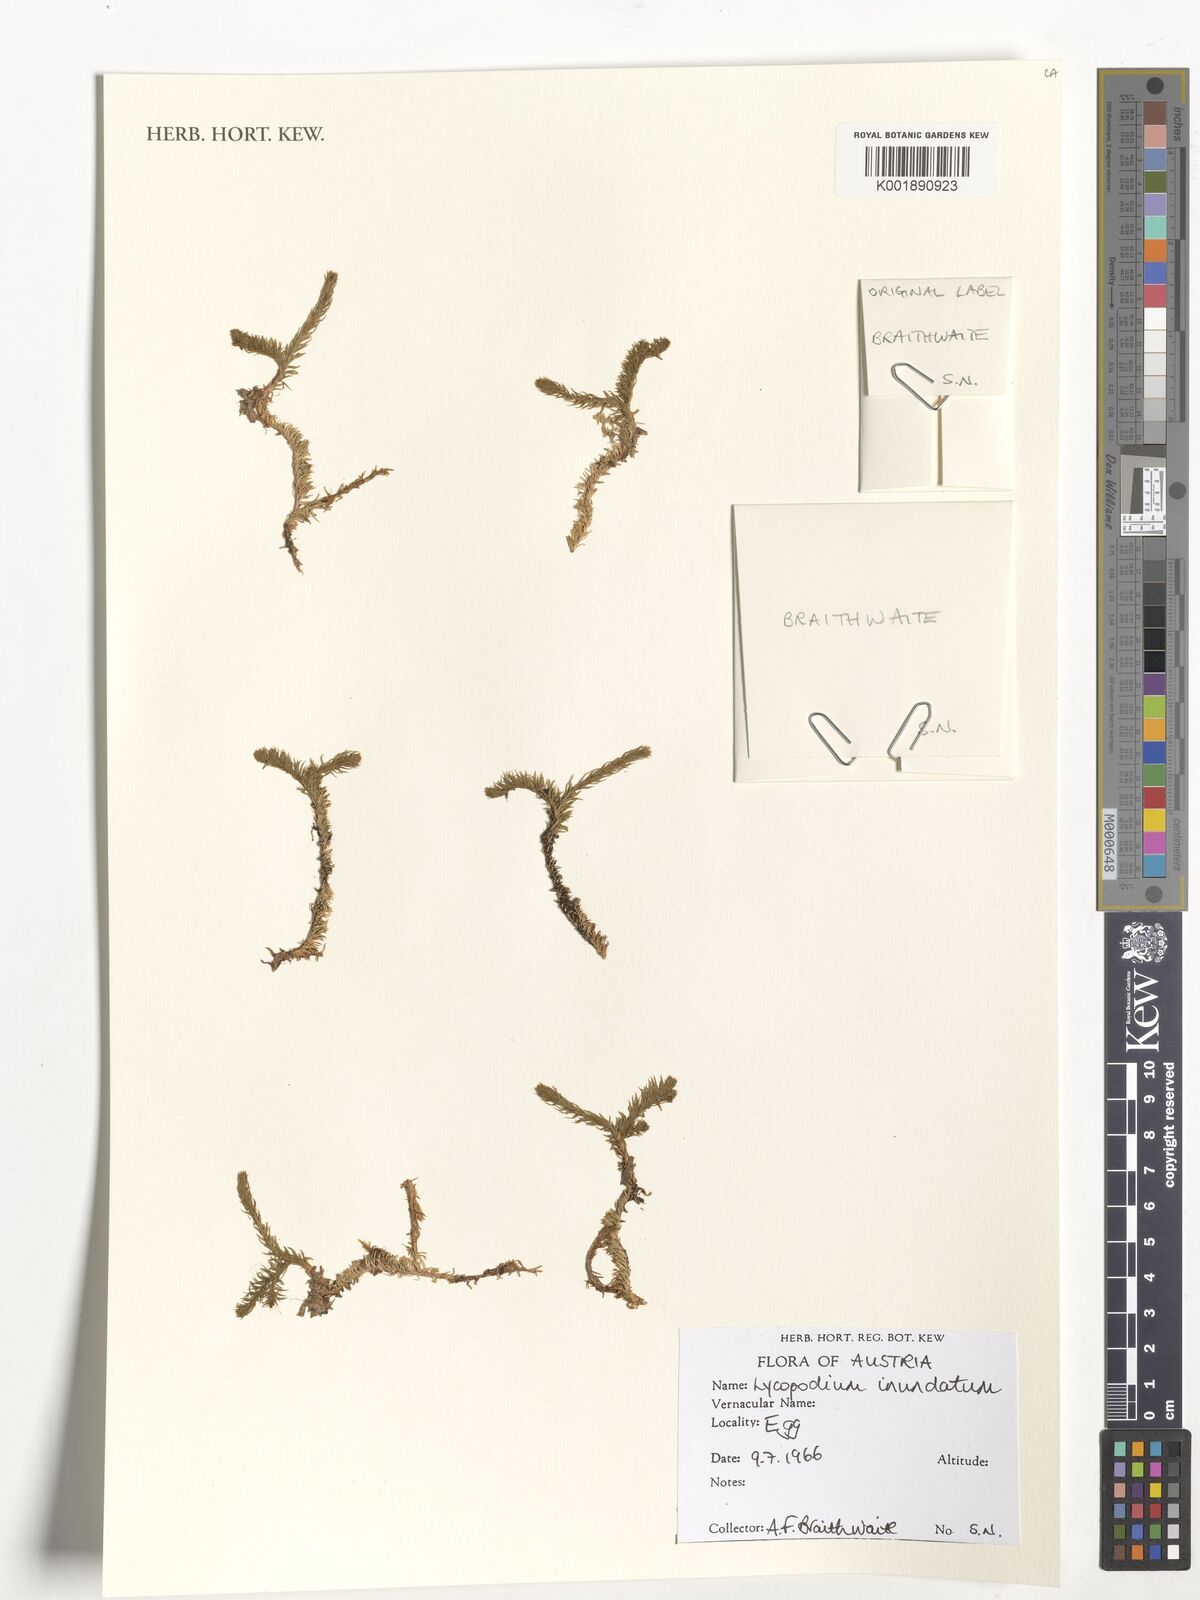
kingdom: Plantae
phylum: Tracheophyta
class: Lycopodiopsida
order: Lycopodiales
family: Lycopodiaceae
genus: Lycopodium
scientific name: Lycopodium
